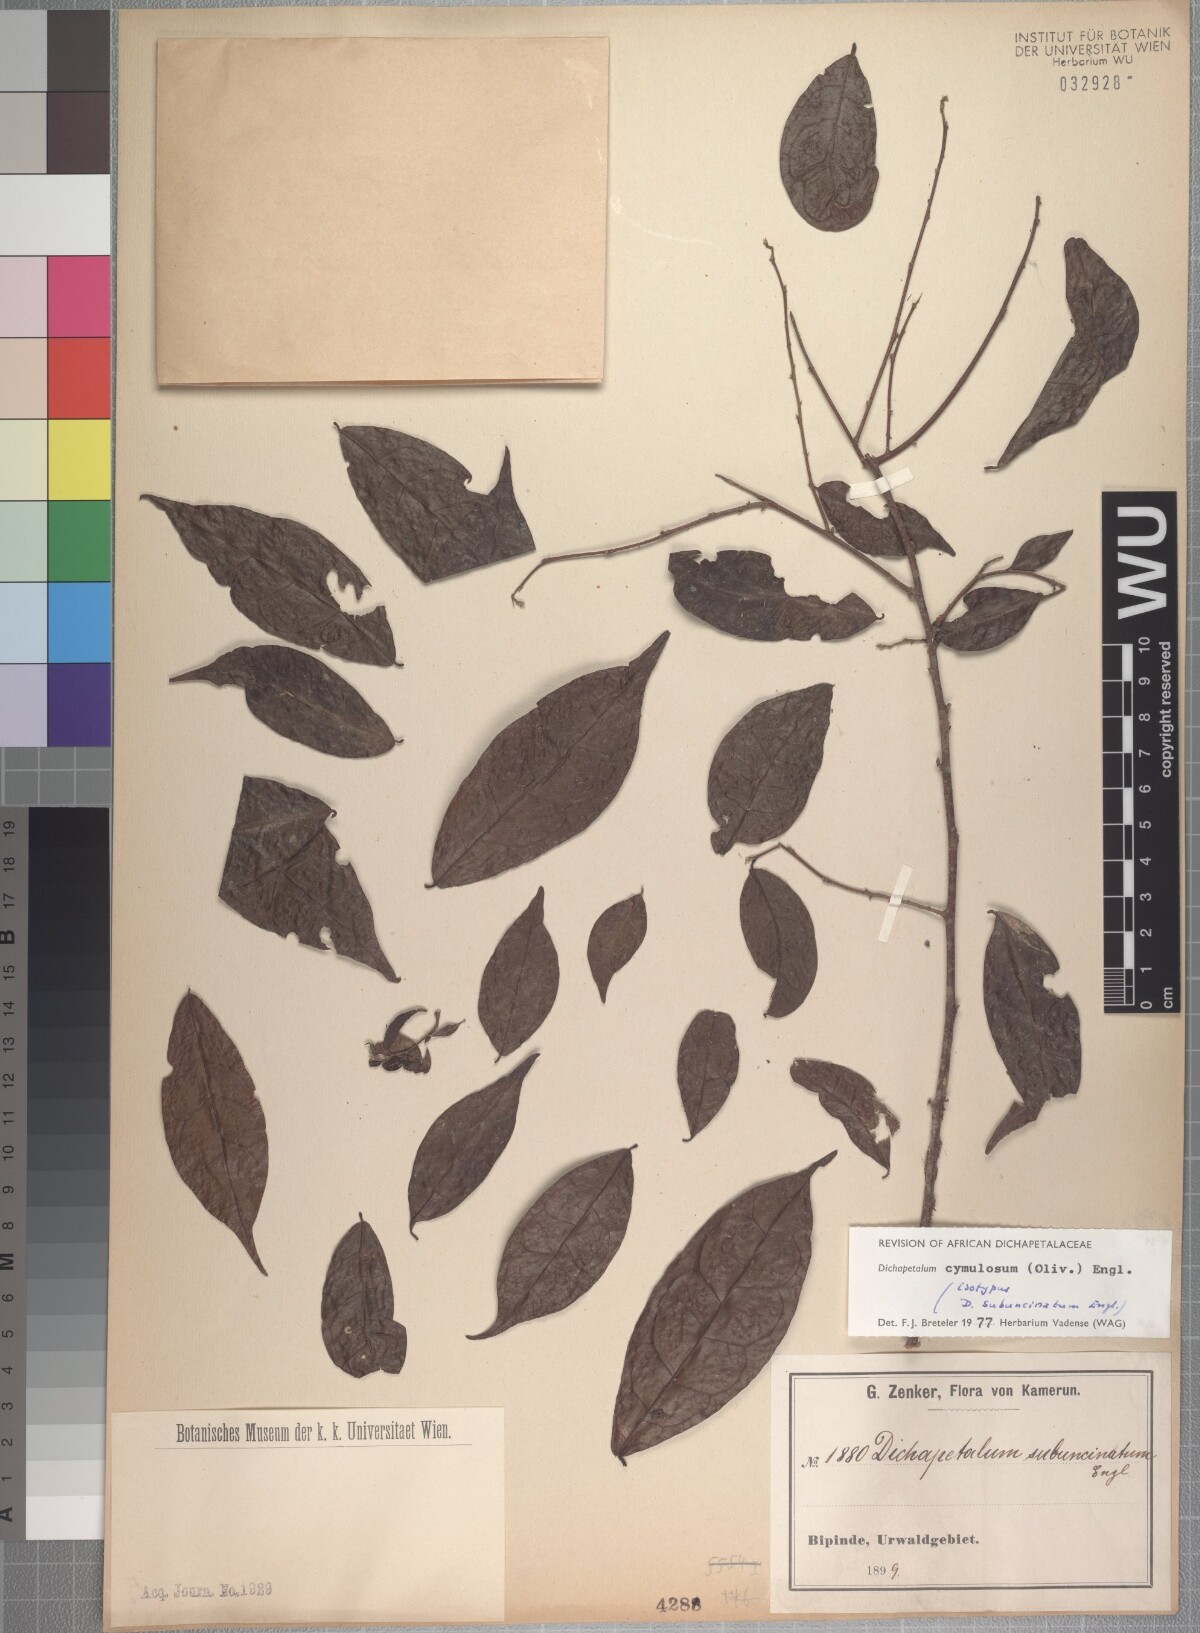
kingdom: Plantae
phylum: Tracheophyta
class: Magnoliopsida
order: Malpighiales
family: Dichapetalaceae
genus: Dichapetalum
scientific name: Dichapetalum cymulosum
